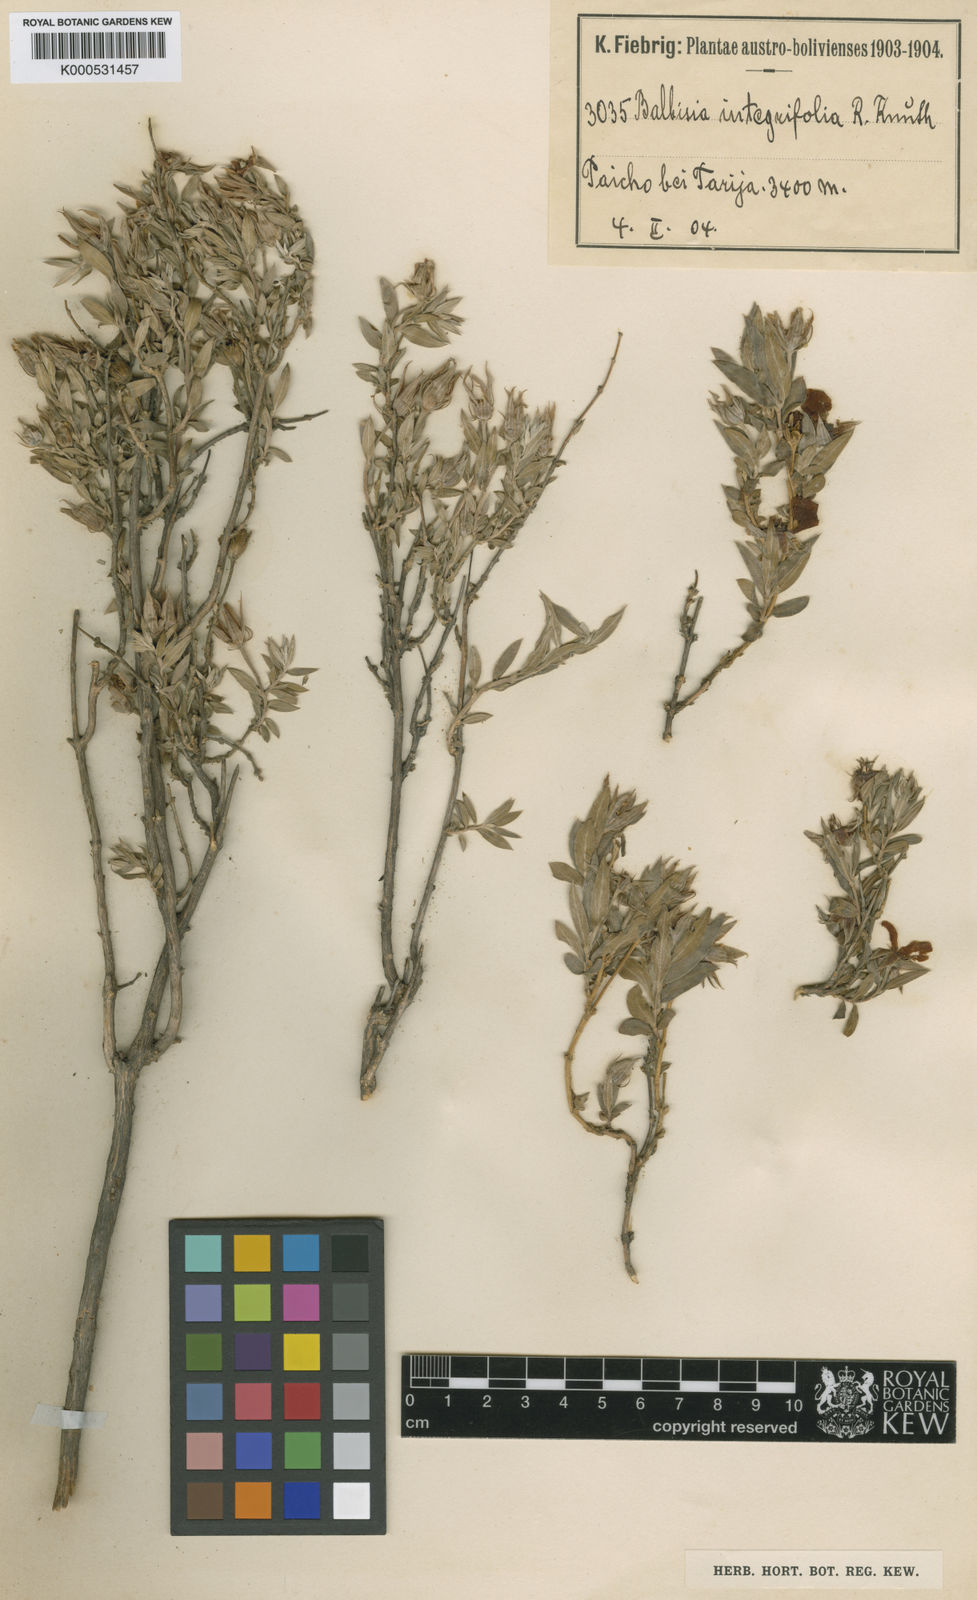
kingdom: Plantae
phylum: Tracheophyta
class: Magnoliopsida
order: Geraniales
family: Vivianiaceae
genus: Balbisia
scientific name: Balbisia integrifolia
